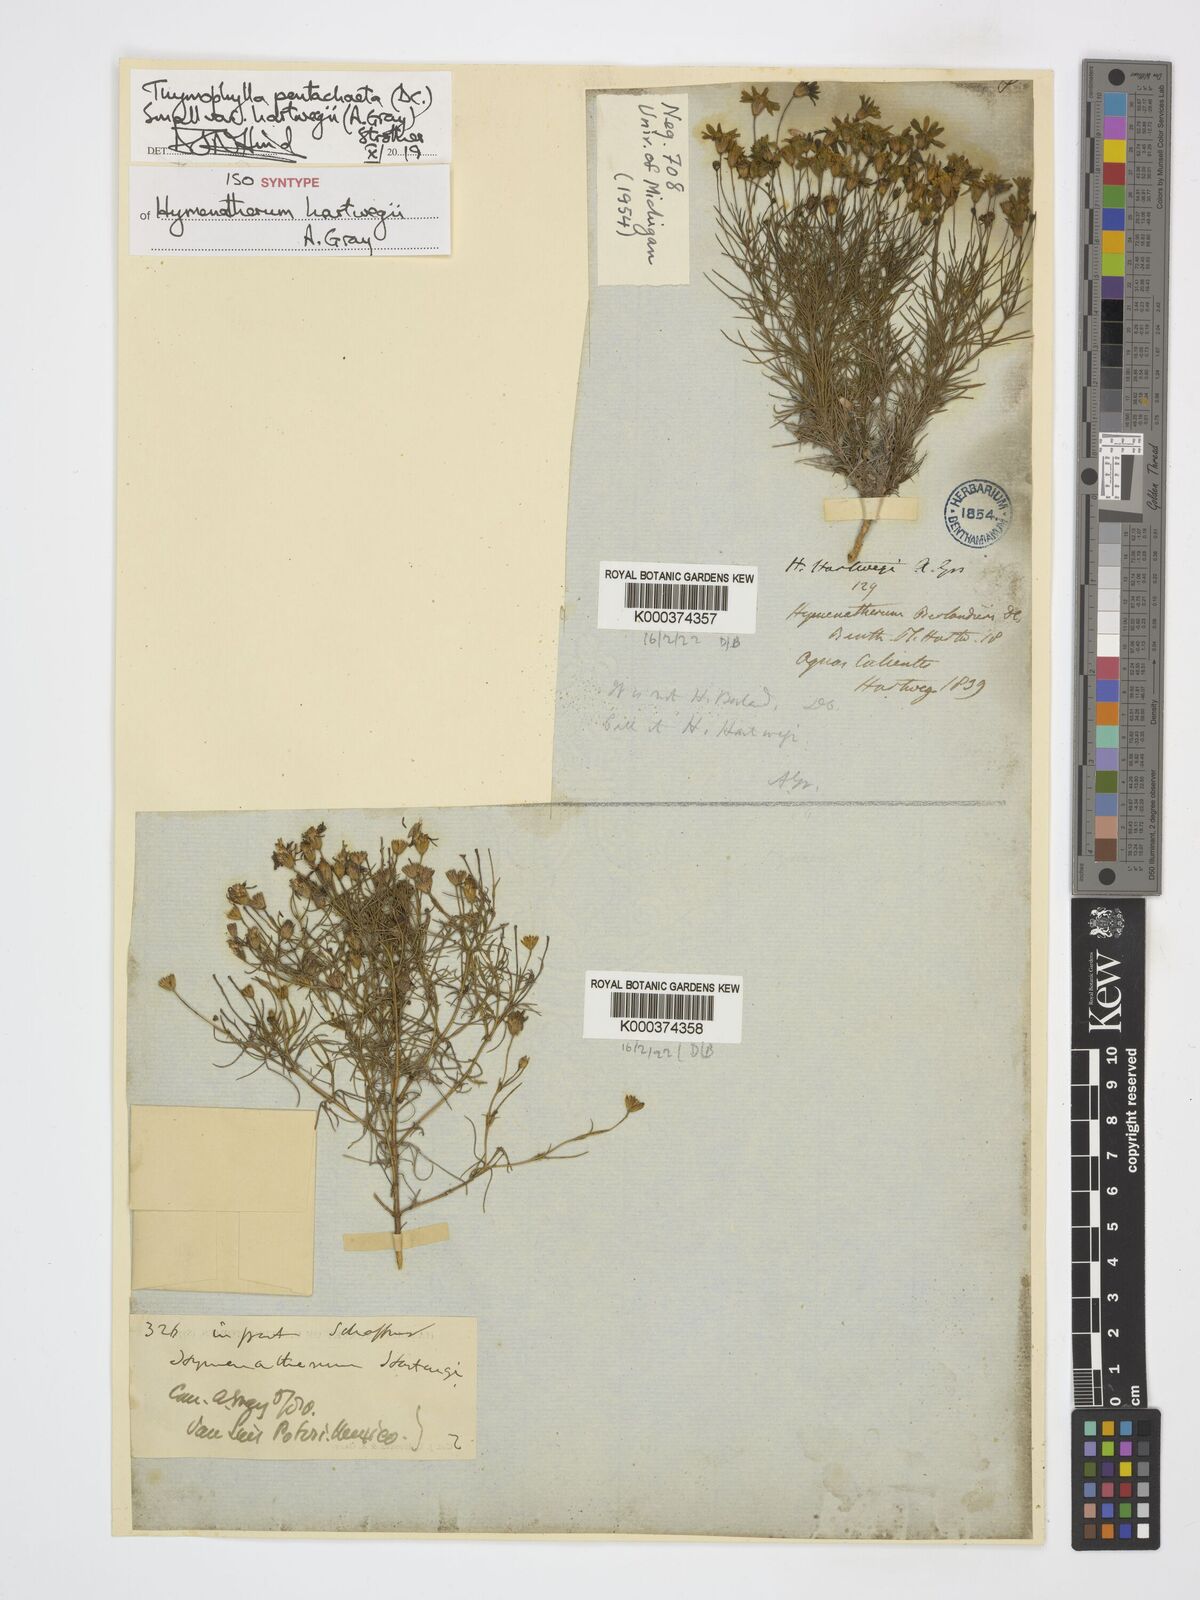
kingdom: Plantae
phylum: Tracheophyta
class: Magnoliopsida
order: Asterales
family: Asteraceae
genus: Thymophylla
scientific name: Thymophylla pentachaeta
